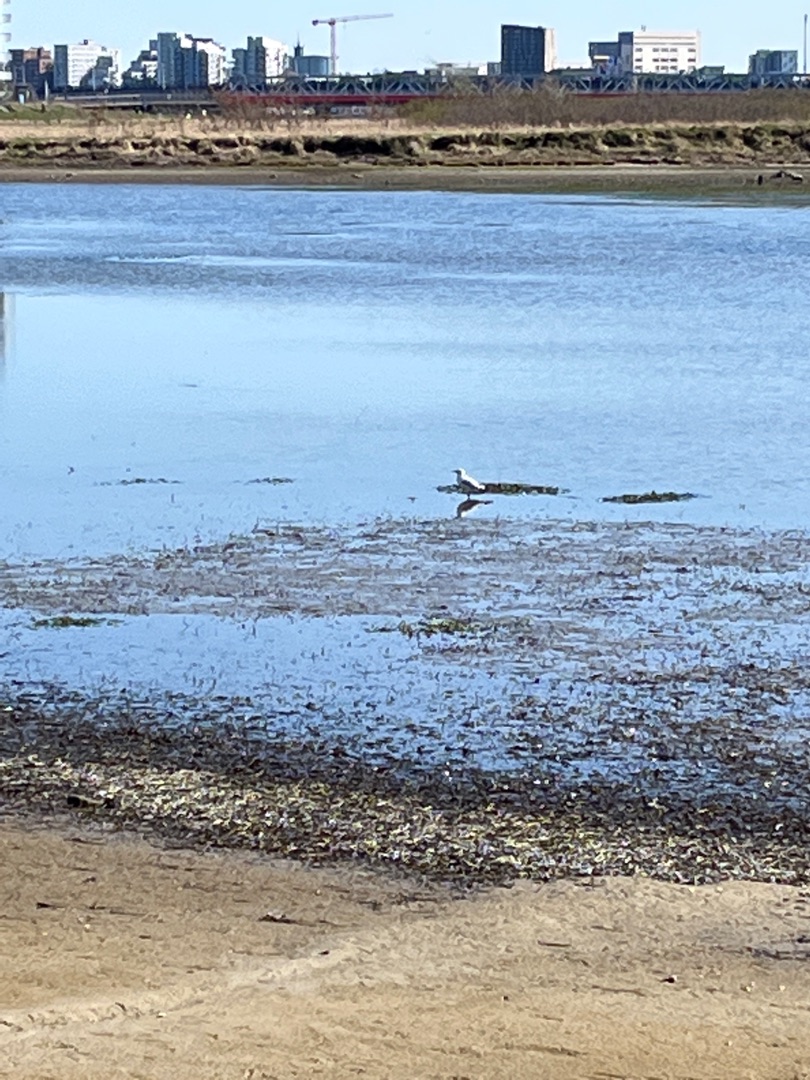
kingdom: Animalia
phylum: Chordata
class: Aves
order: Charadriiformes
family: Laridae
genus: Larus
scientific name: Larus canus
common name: Stormmåge
